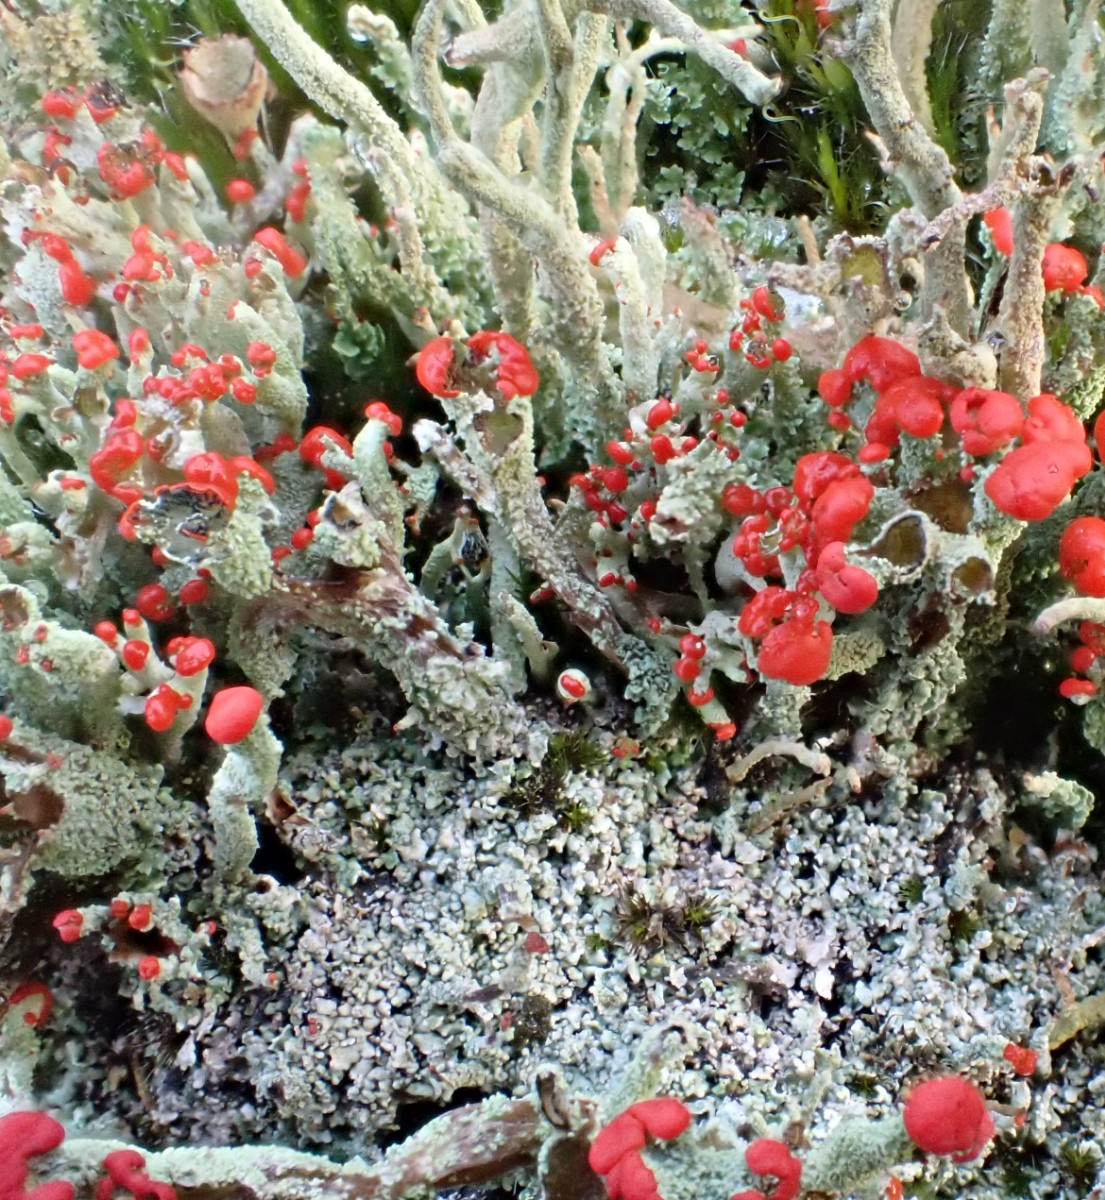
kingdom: Fungi
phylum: Ascomycota
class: Lecanoromycetes
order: Lecanorales
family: Cladoniaceae
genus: Cladonia
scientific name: Cladonia floerkeana
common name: lakrød bægerlav
